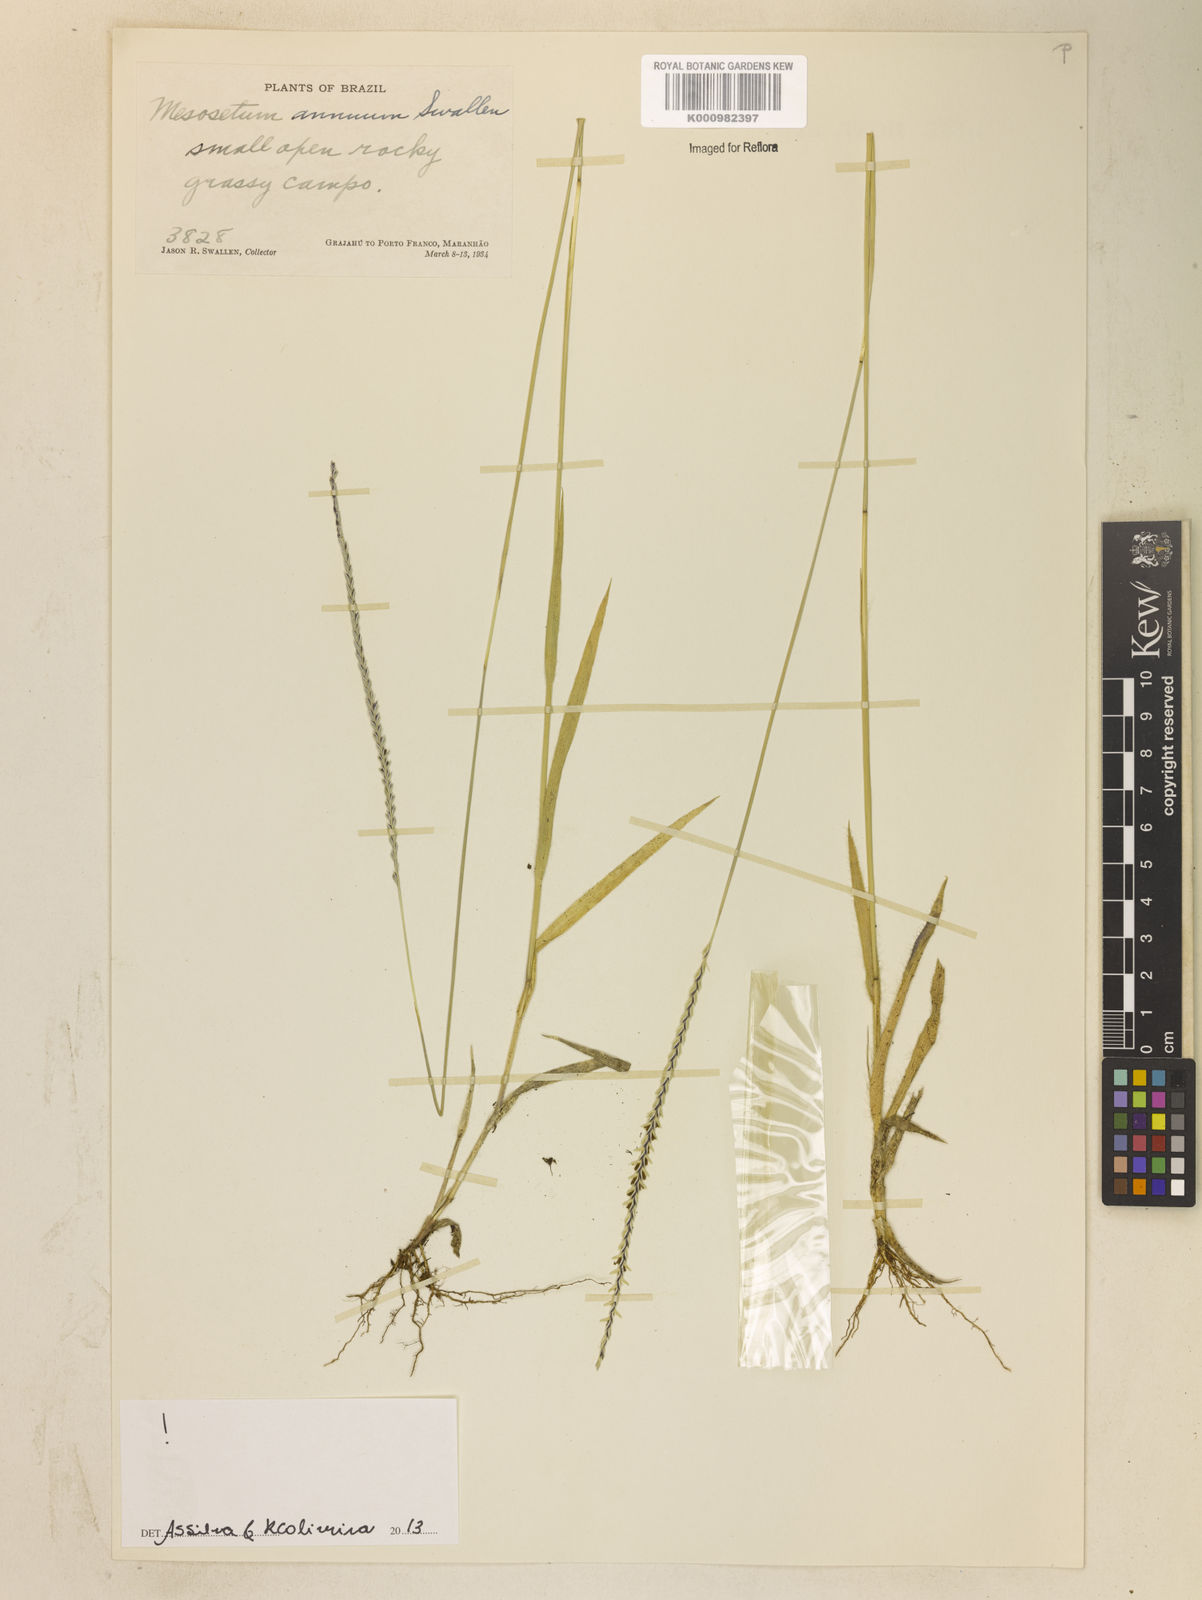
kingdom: Plantae
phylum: Tracheophyta
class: Liliopsida
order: Poales
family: Poaceae
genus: Mesosetum
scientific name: Mesosetum annuum
